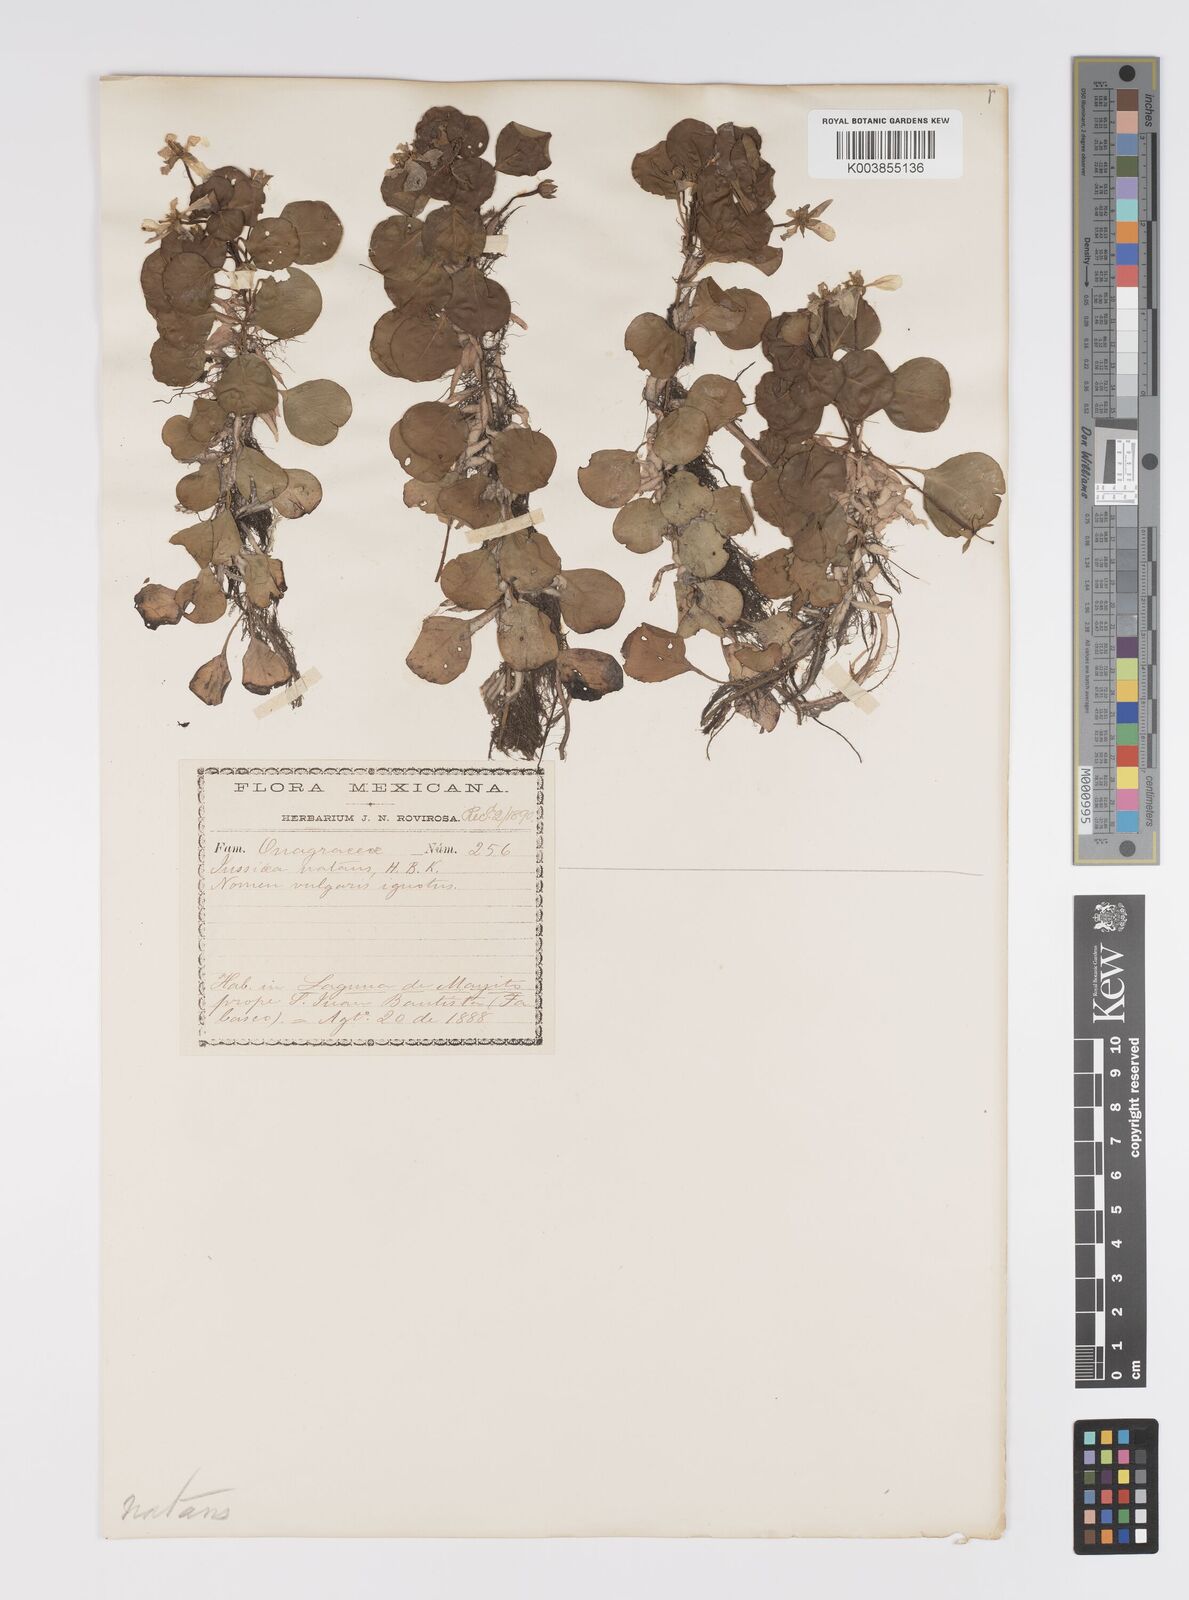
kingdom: Plantae
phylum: Tracheophyta
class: Magnoliopsida
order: Myrtales
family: Onagraceae
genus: Ludwigia
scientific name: Ludwigia helminthorrhiza
